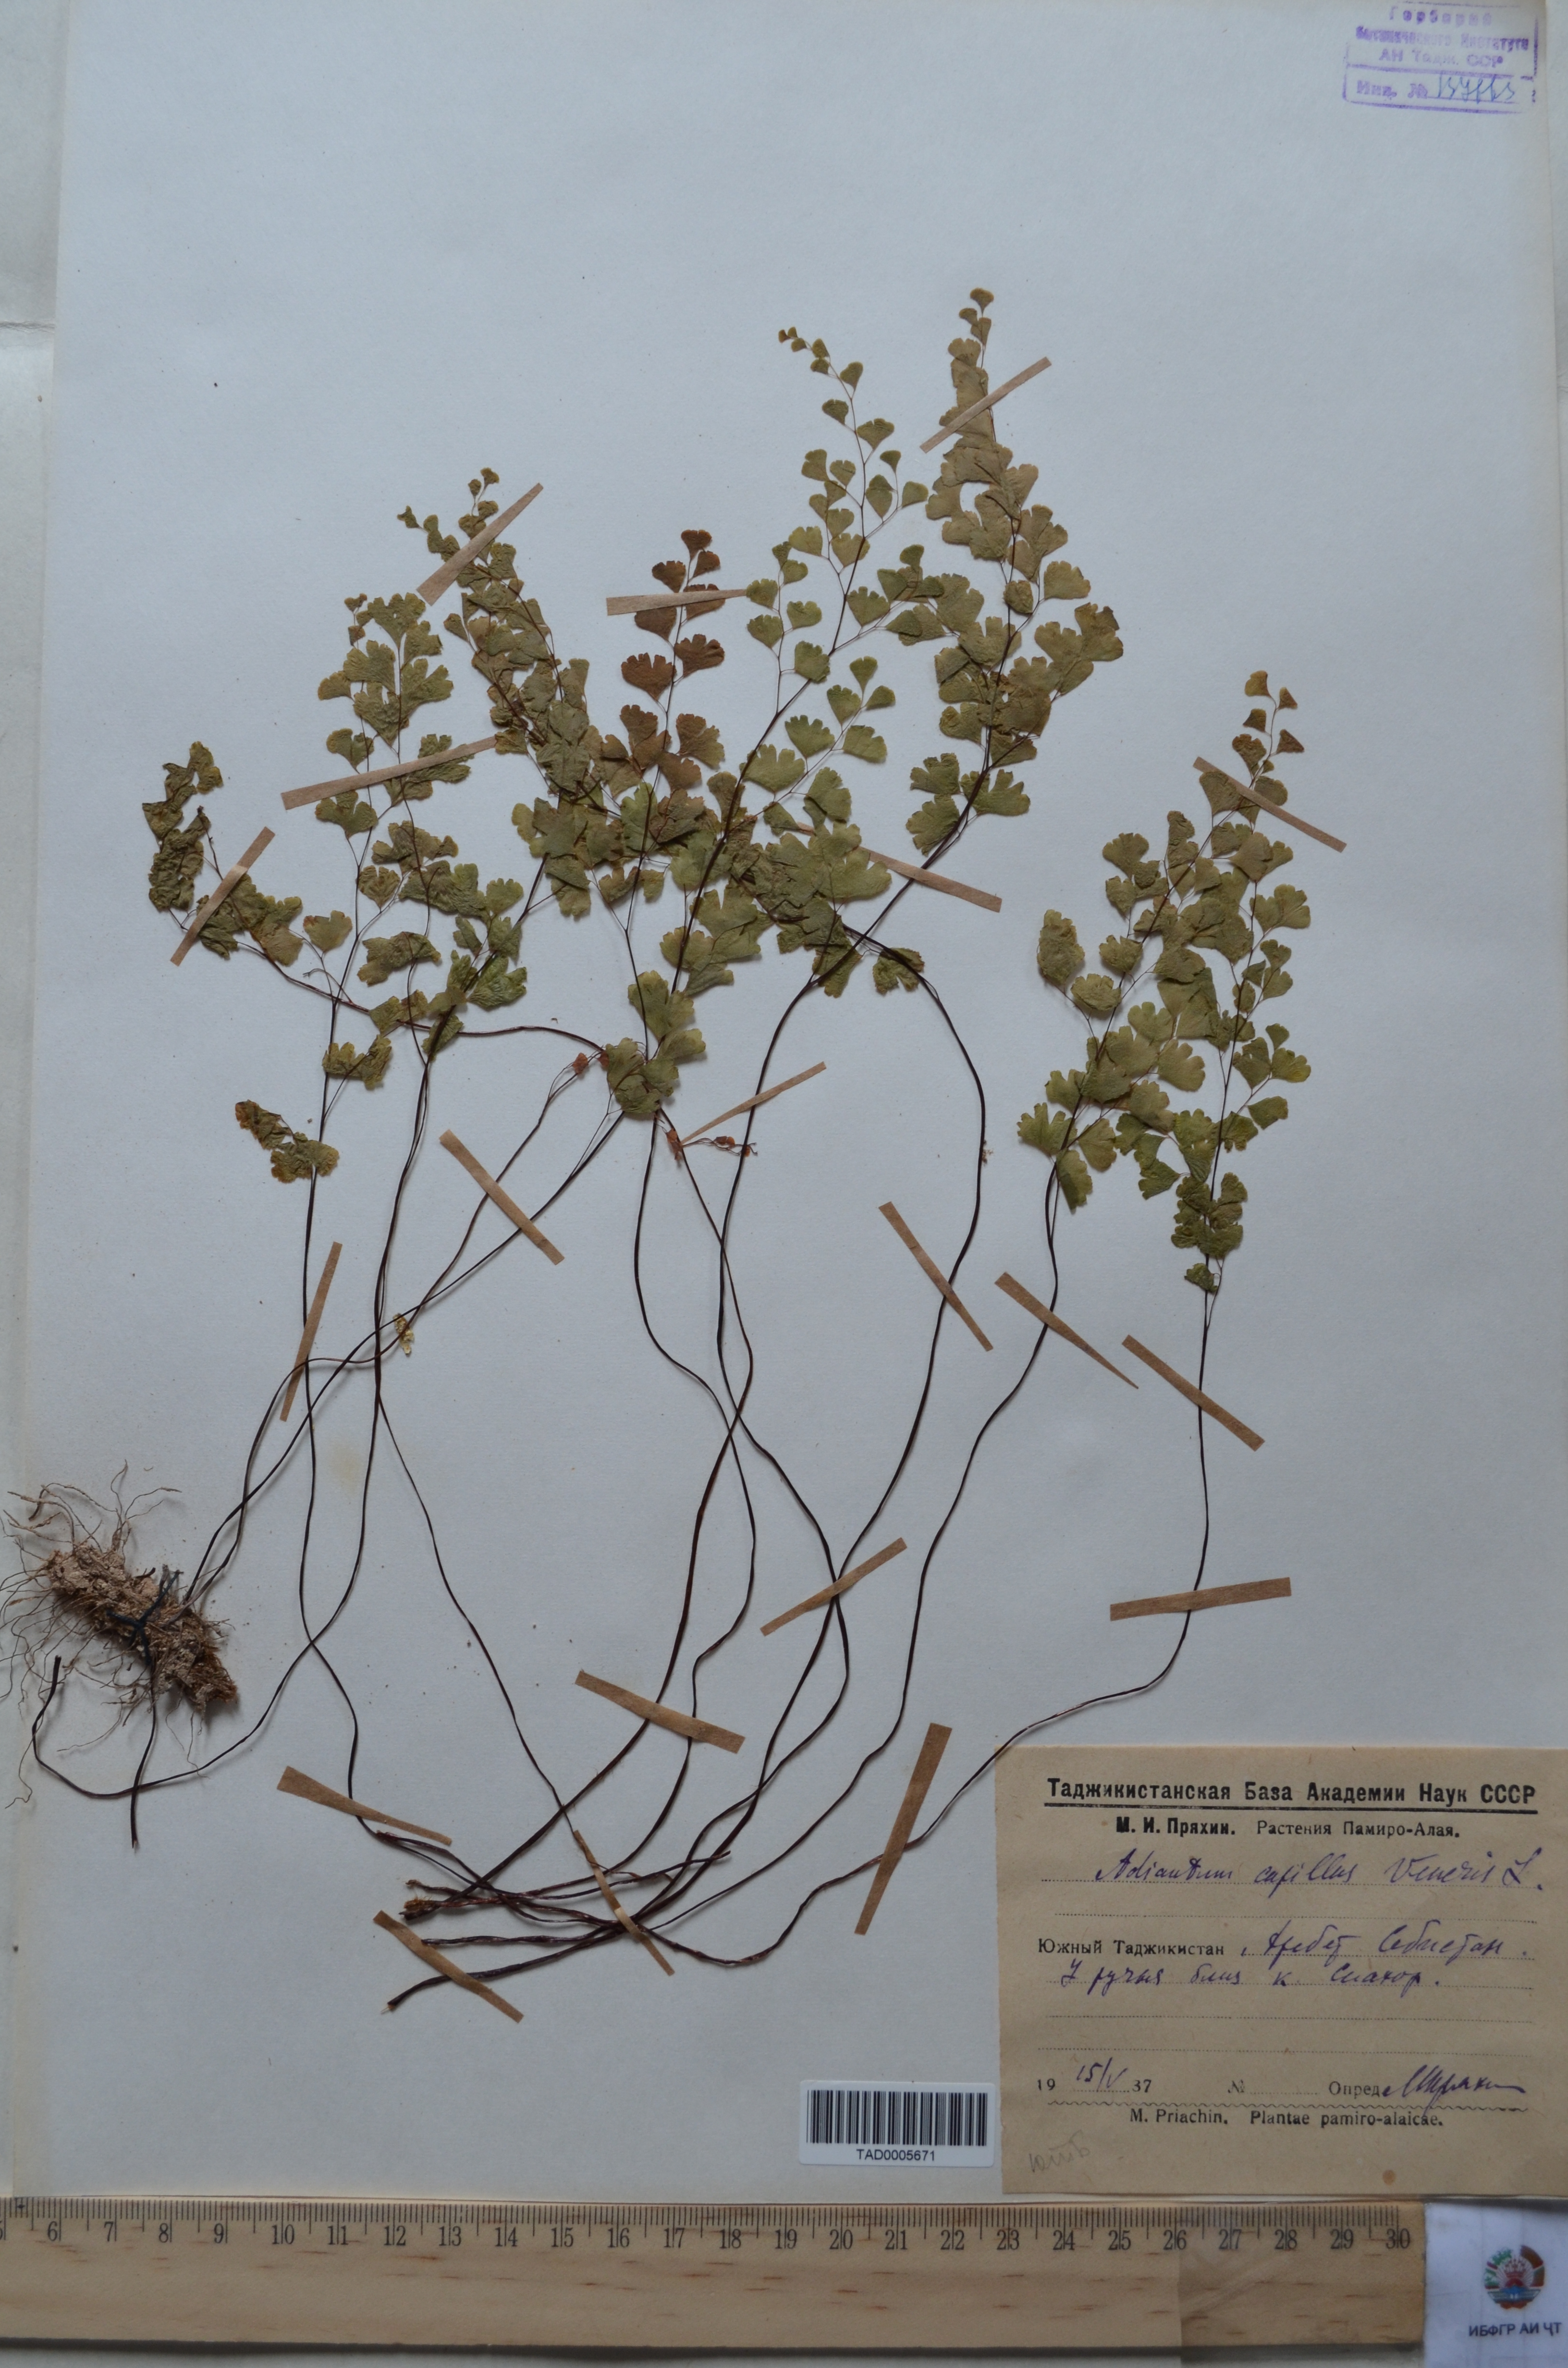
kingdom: Plantae
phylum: Tracheophyta
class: Polypodiopsida
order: Polypodiales
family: Pteridaceae
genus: Adiantum
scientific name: Adiantum capillus-veneris
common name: Maidenhair fern
